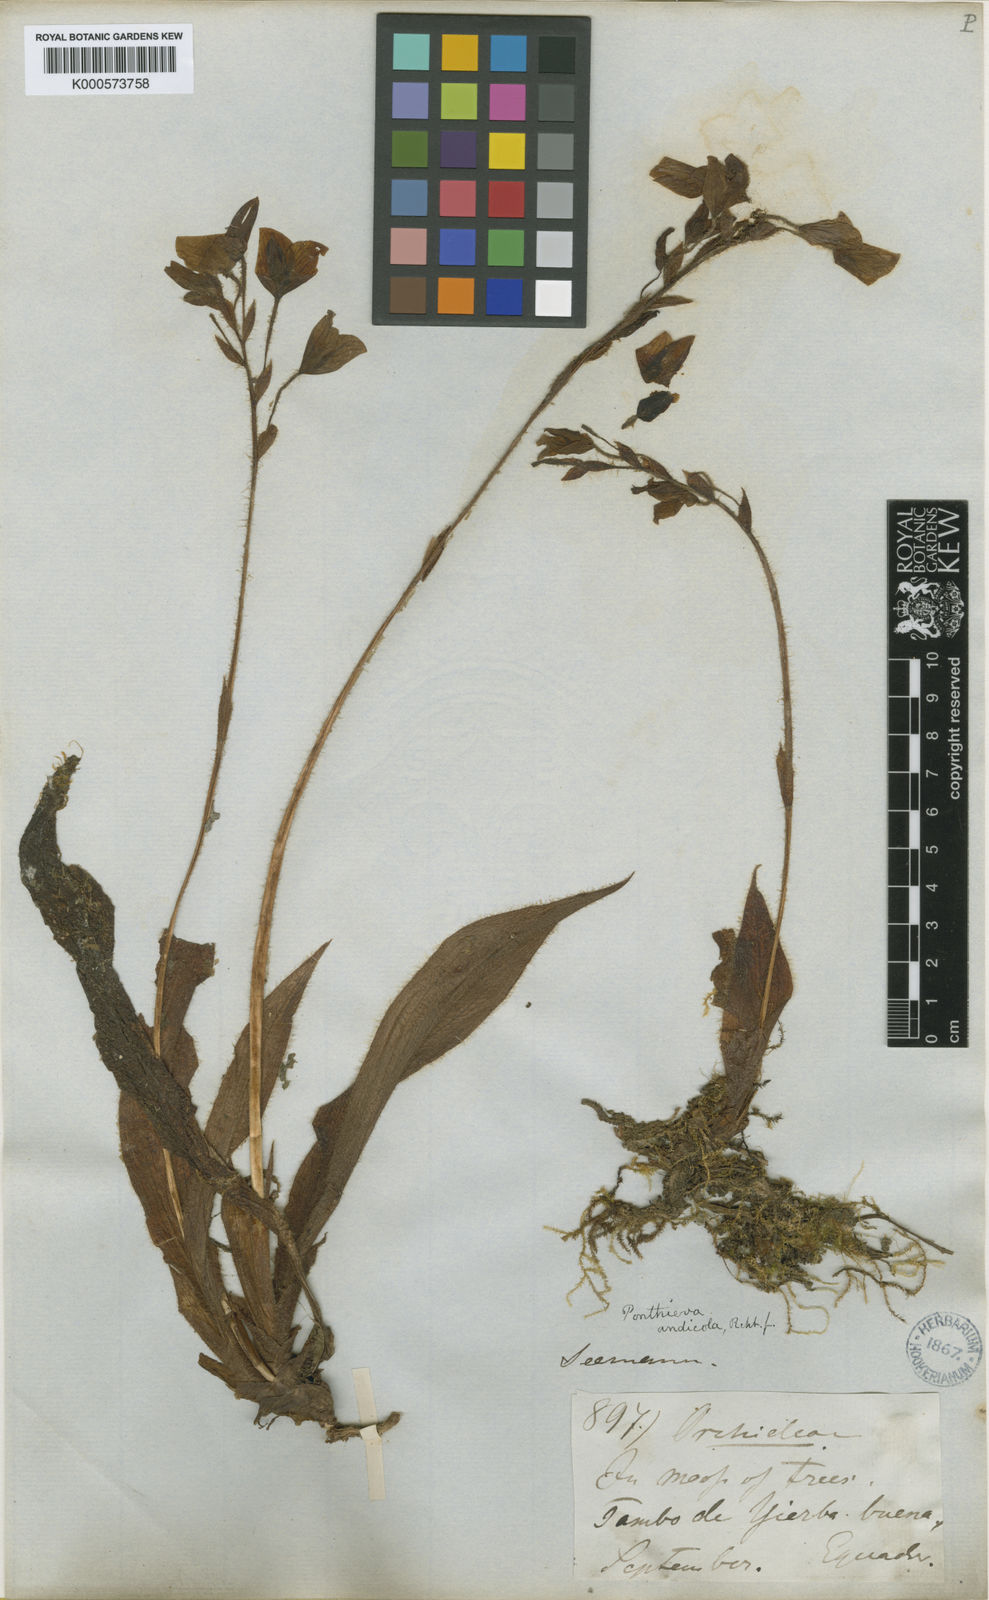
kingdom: Plantae
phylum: Tracheophyta
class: Liliopsida
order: Asparagales
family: Orchidaceae
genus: Ponthieva
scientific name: Ponthieva andicola
